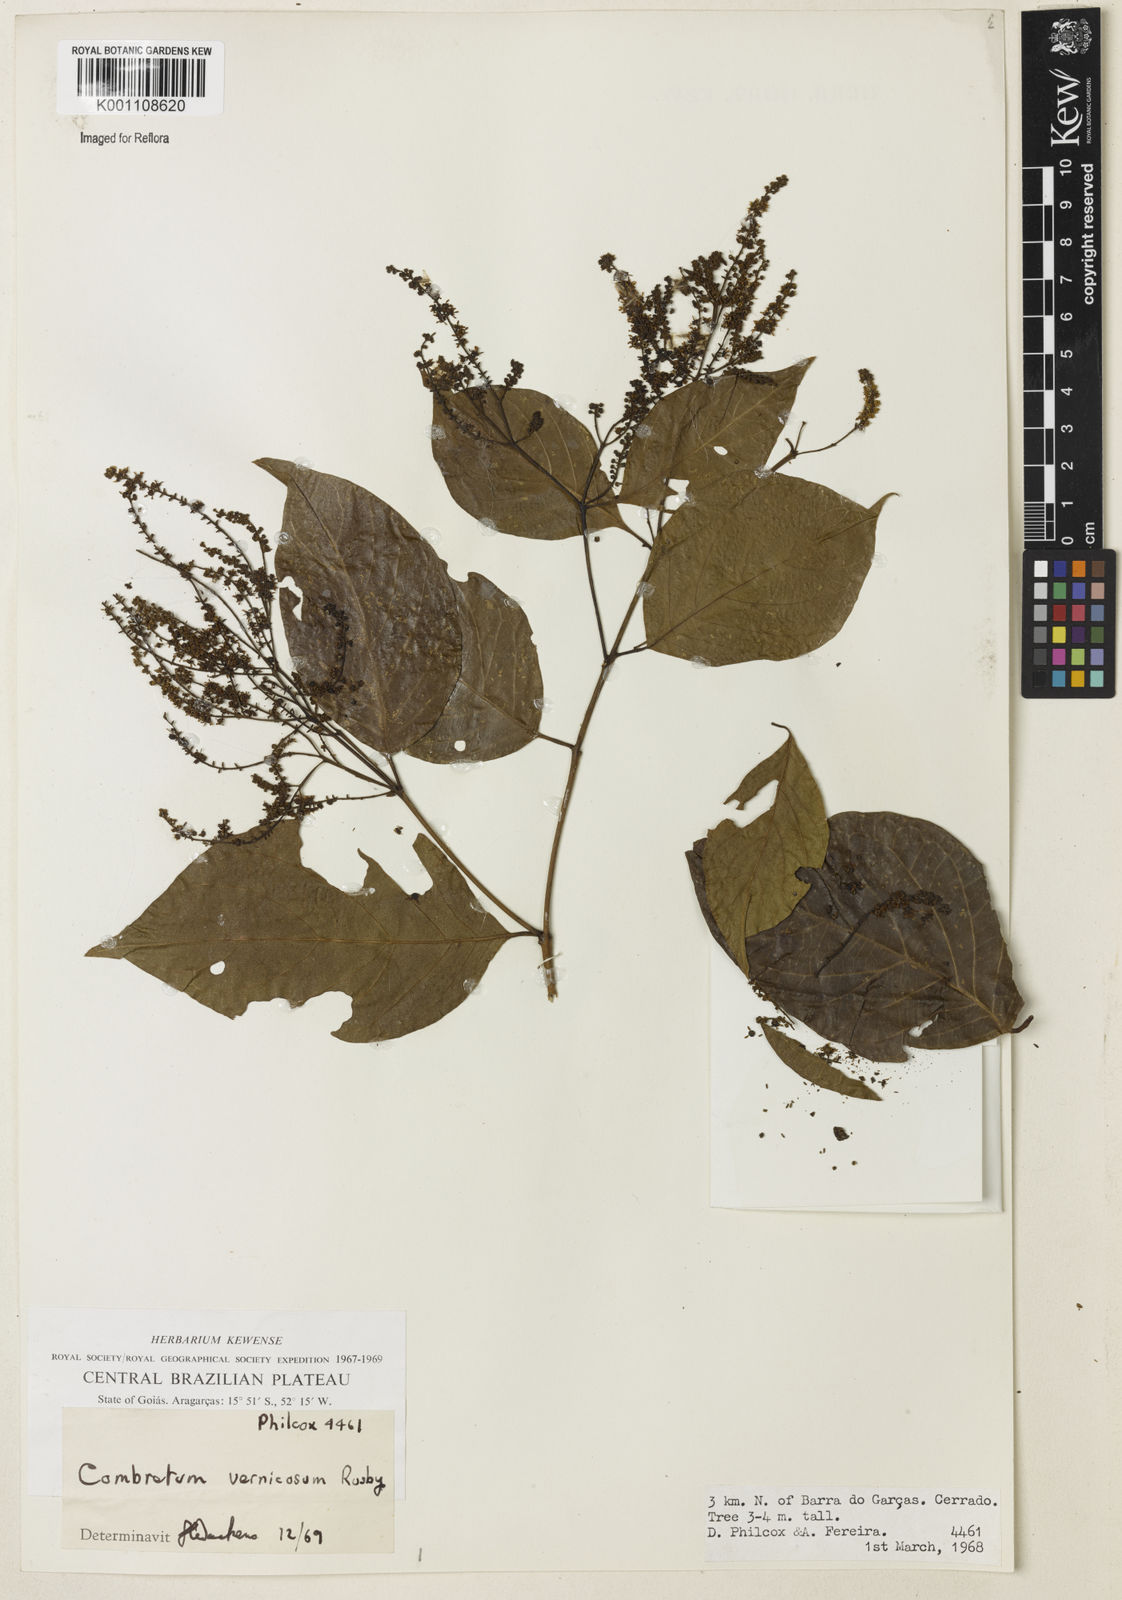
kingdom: Plantae
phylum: Tracheophyta
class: Magnoliopsida
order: Myrtales
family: Combretaceae
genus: Combretum
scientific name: Combretum vernicosum
